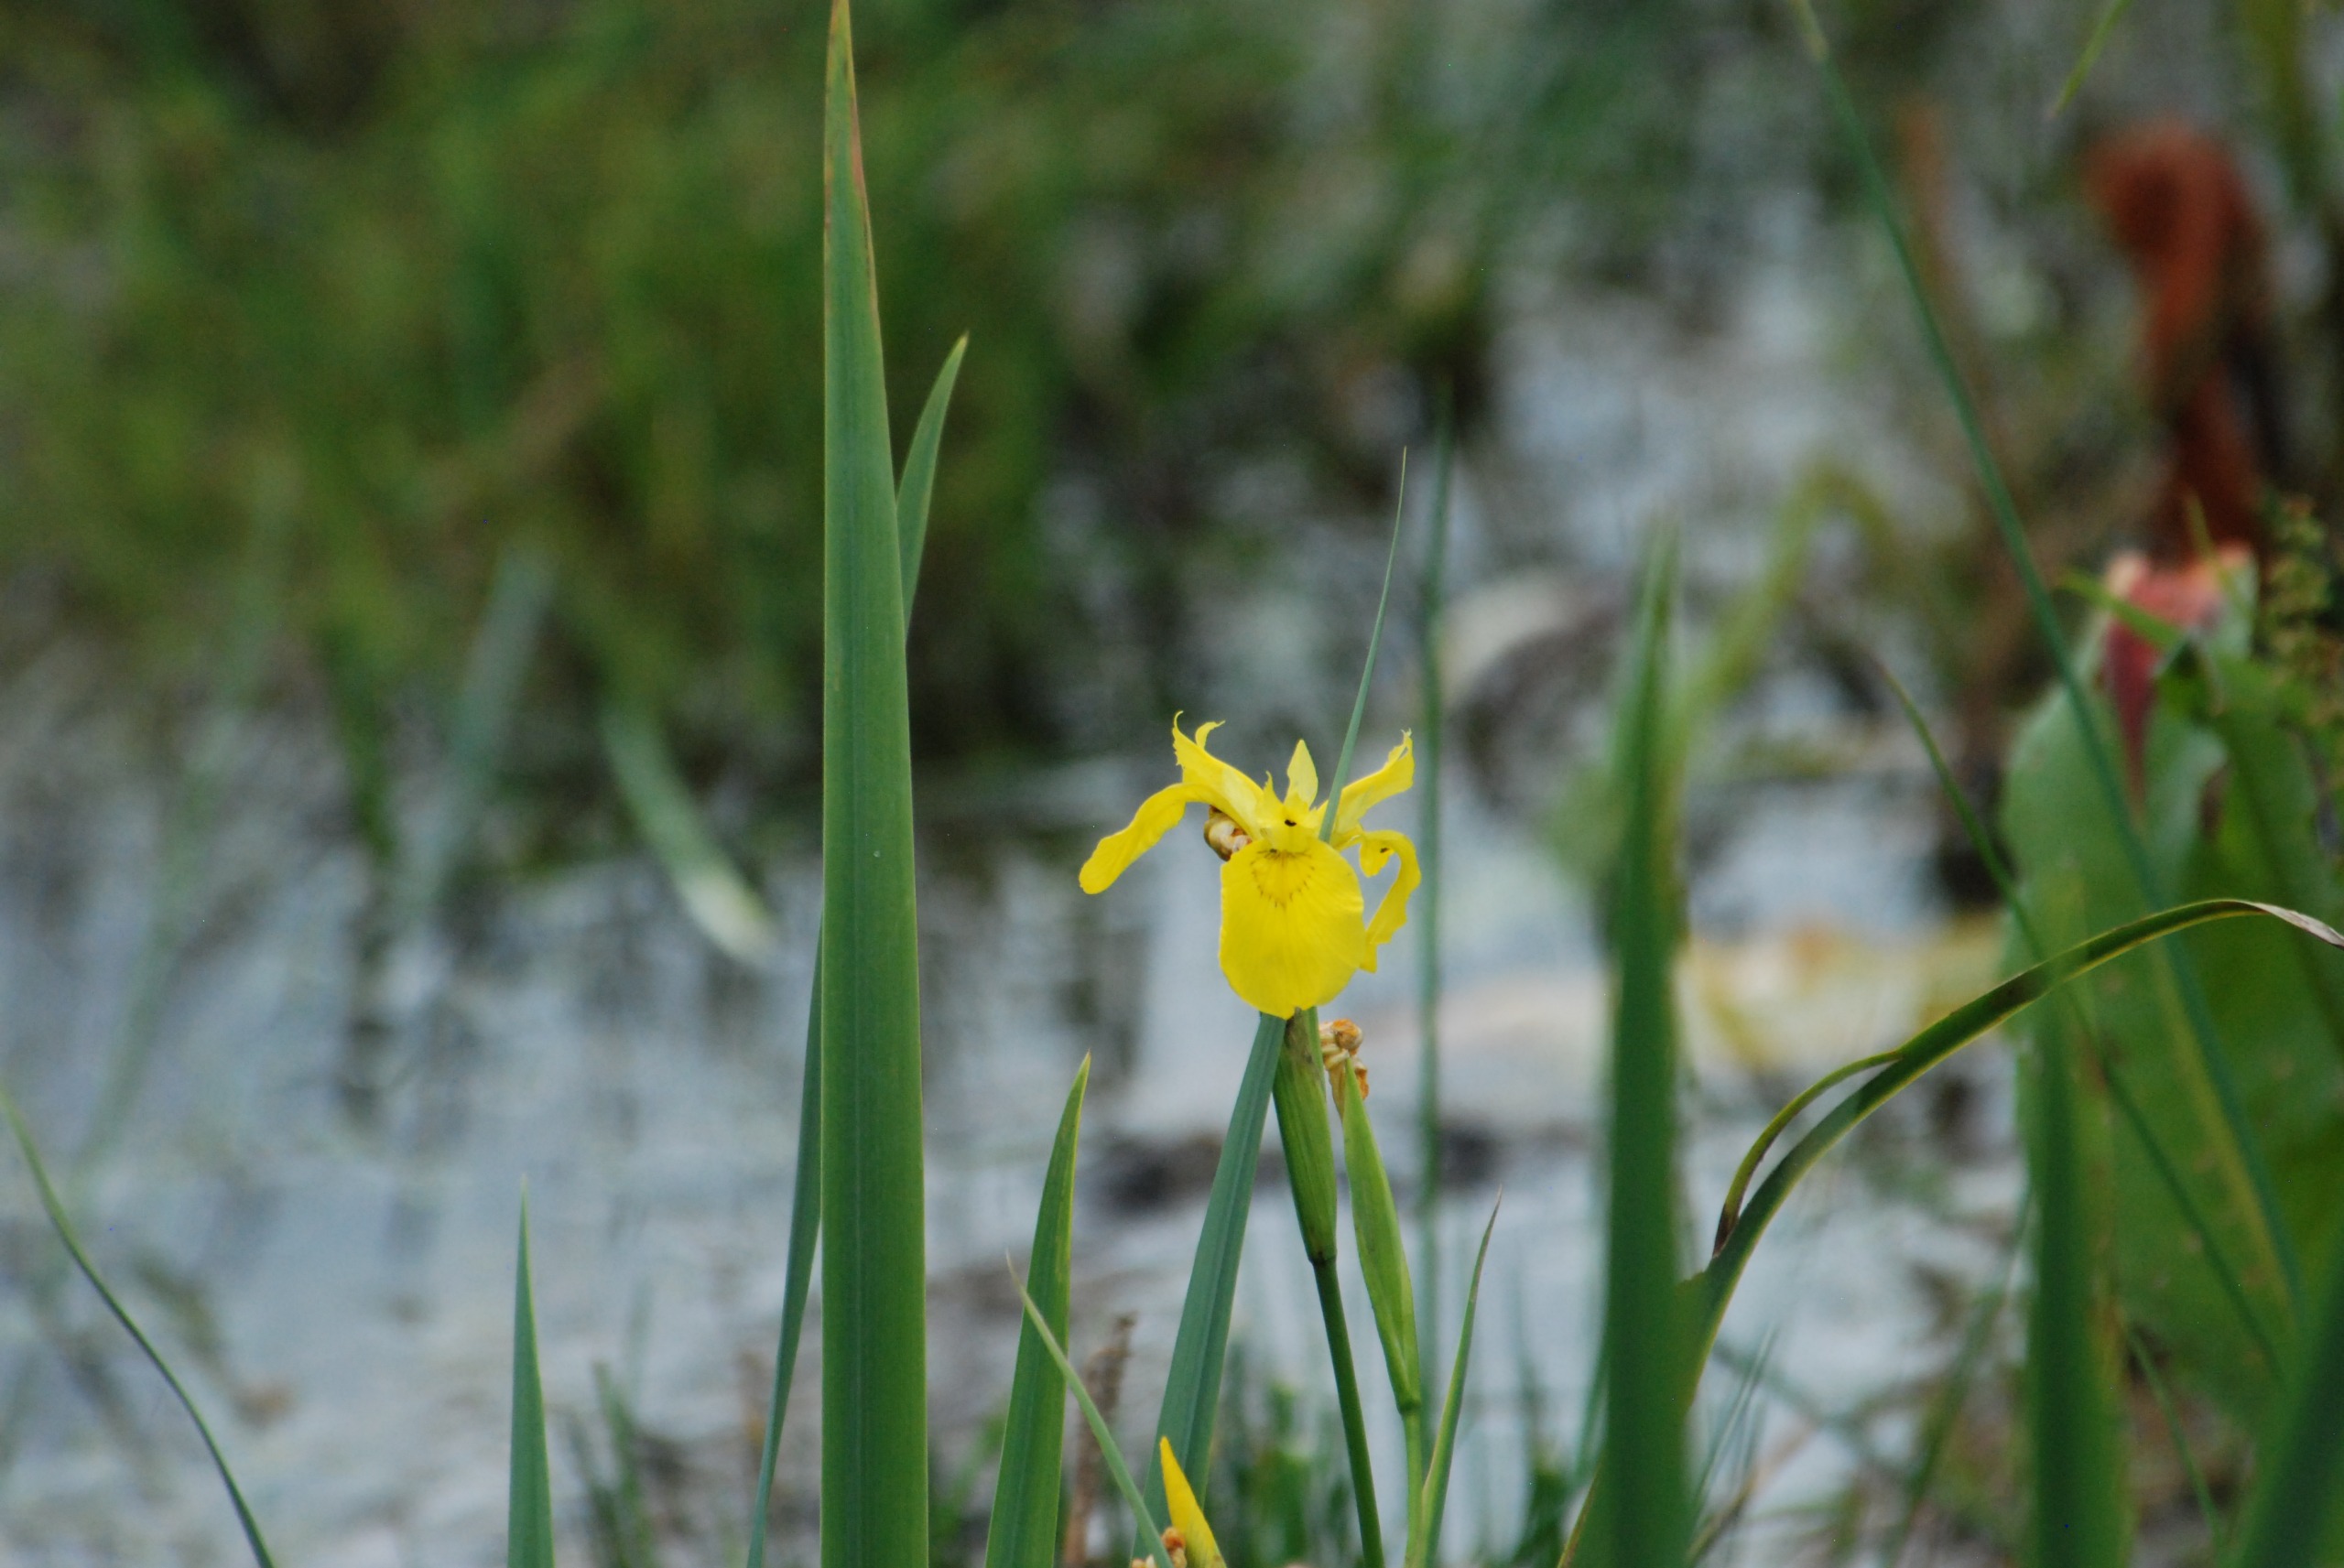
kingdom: Plantae
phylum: Tracheophyta
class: Liliopsida
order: Asparagales
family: Iridaceae
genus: Iris
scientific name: Iris pseudacorus
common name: Gul iris
